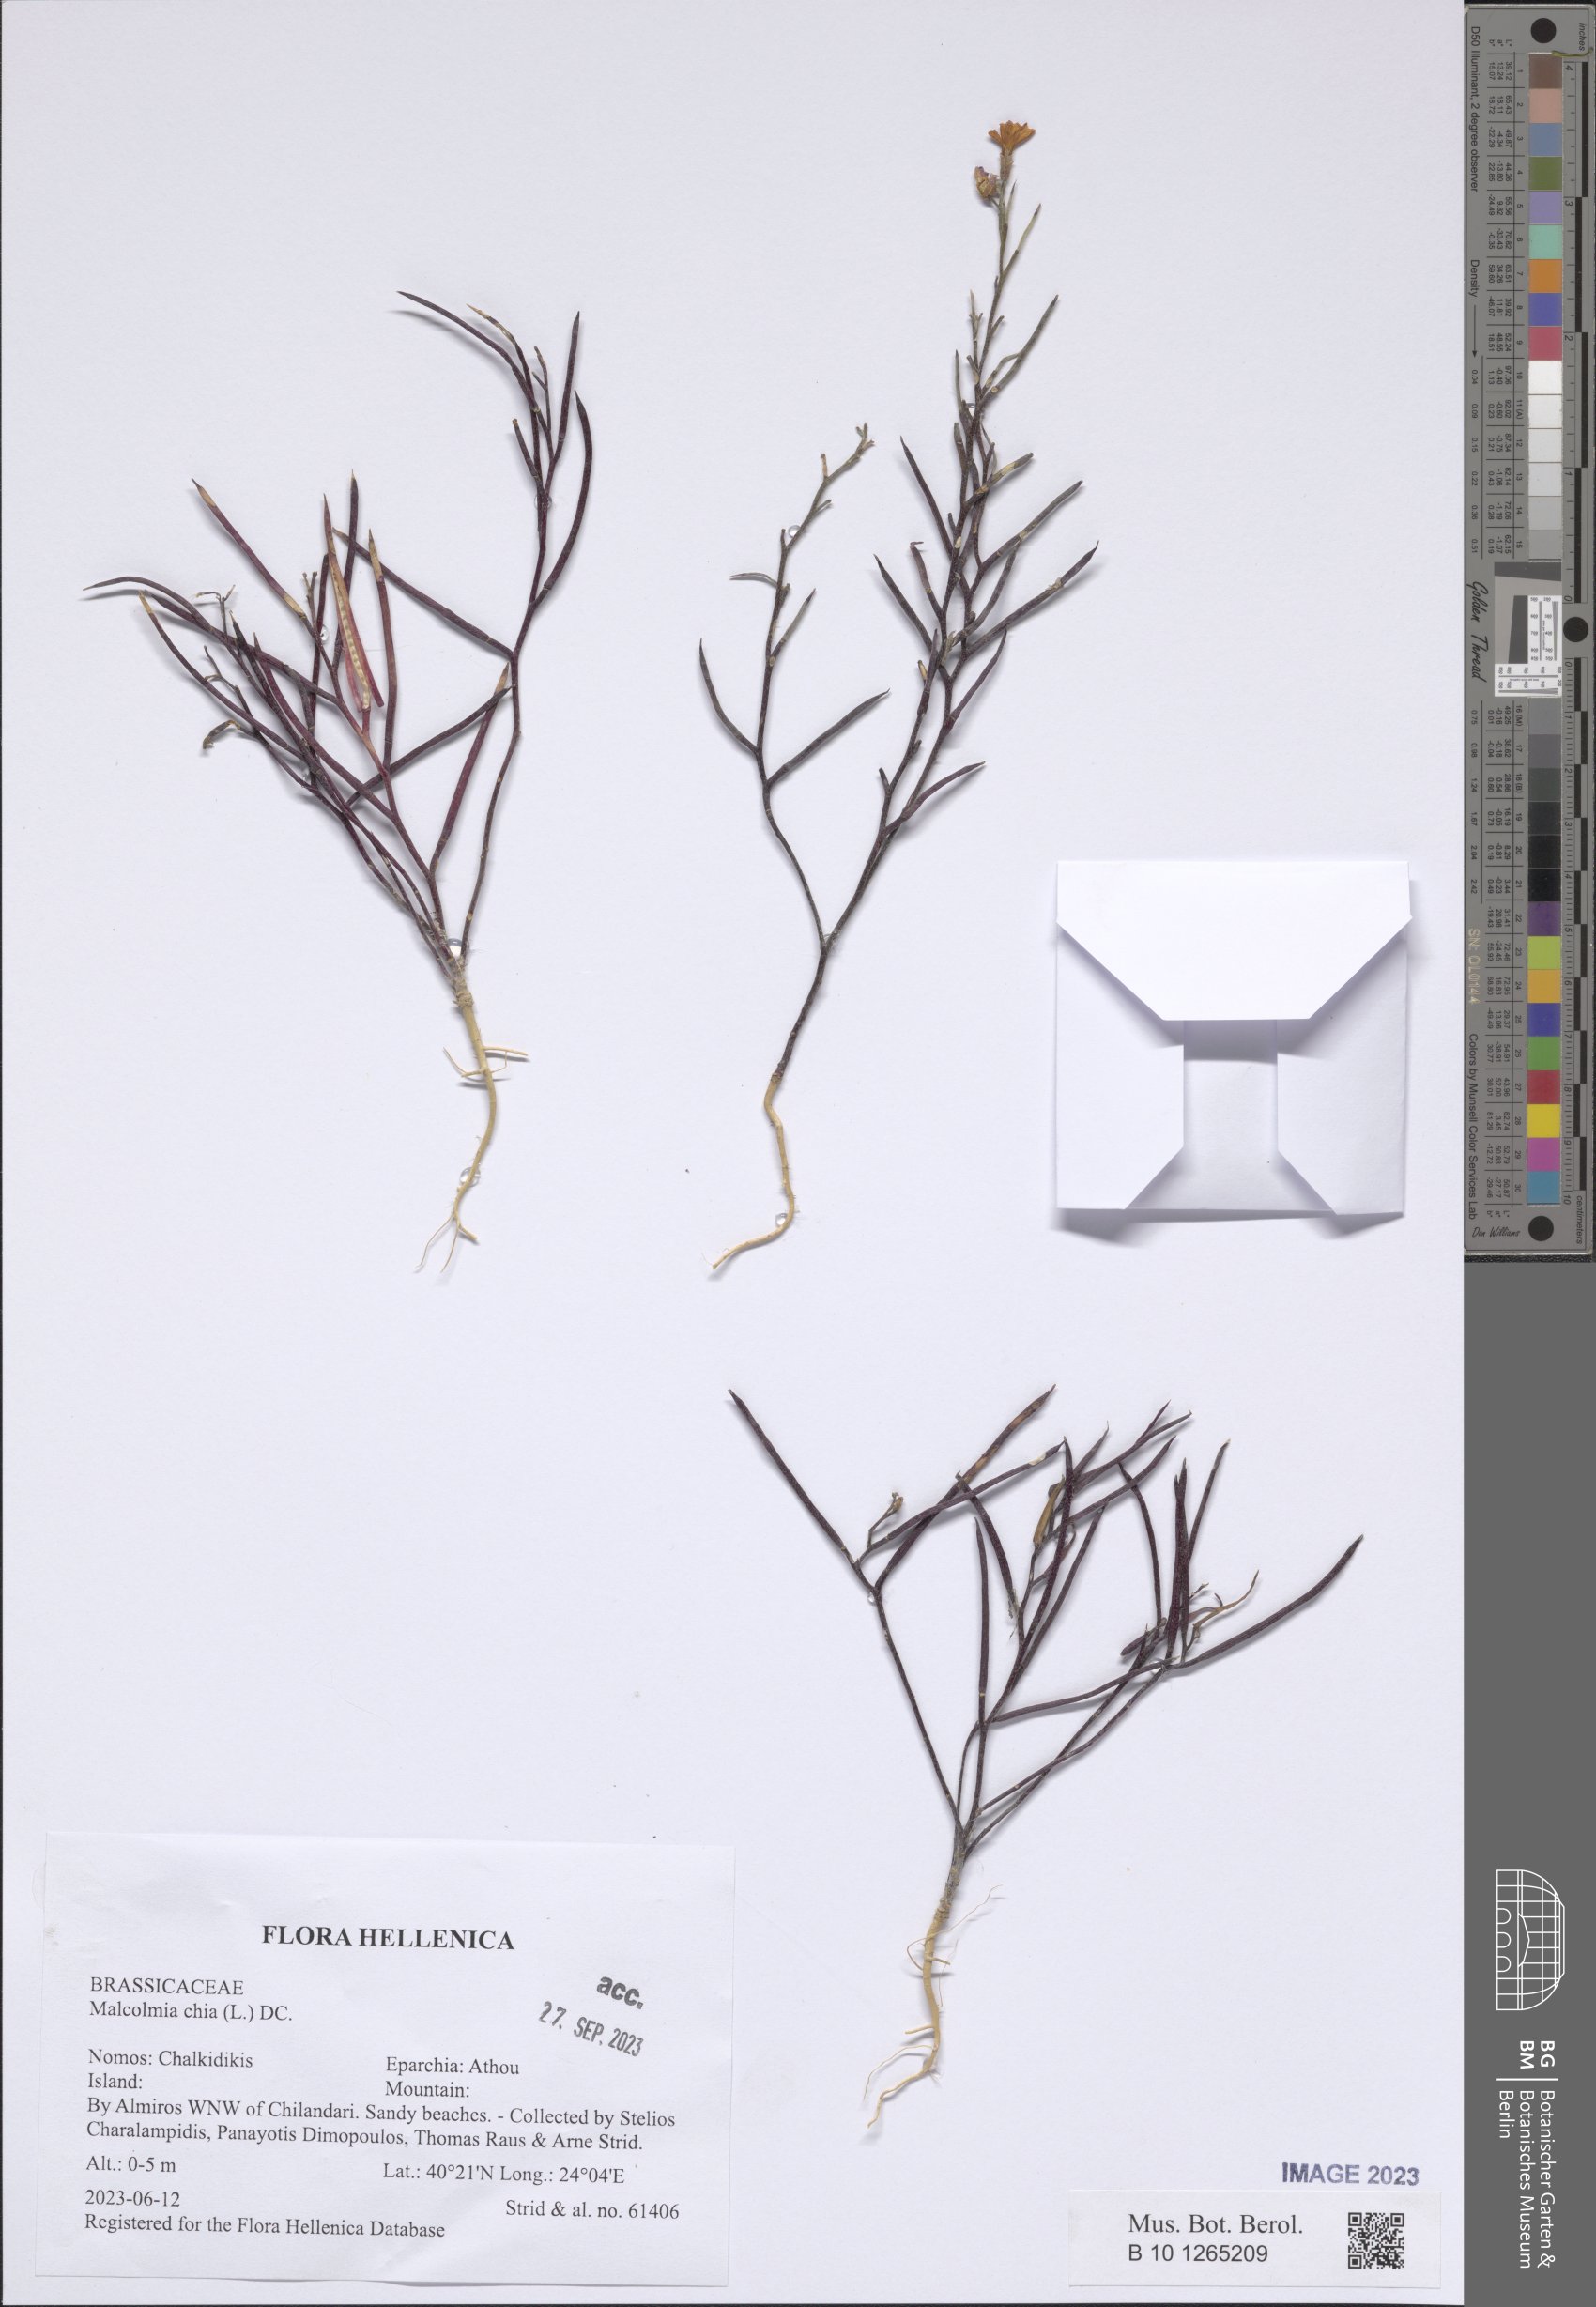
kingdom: Plantae
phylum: Tracheophyta
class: Magnoliopsida
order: Brassicales
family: Brassicaceae
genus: Malcolmia
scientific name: Malcolmia chia
